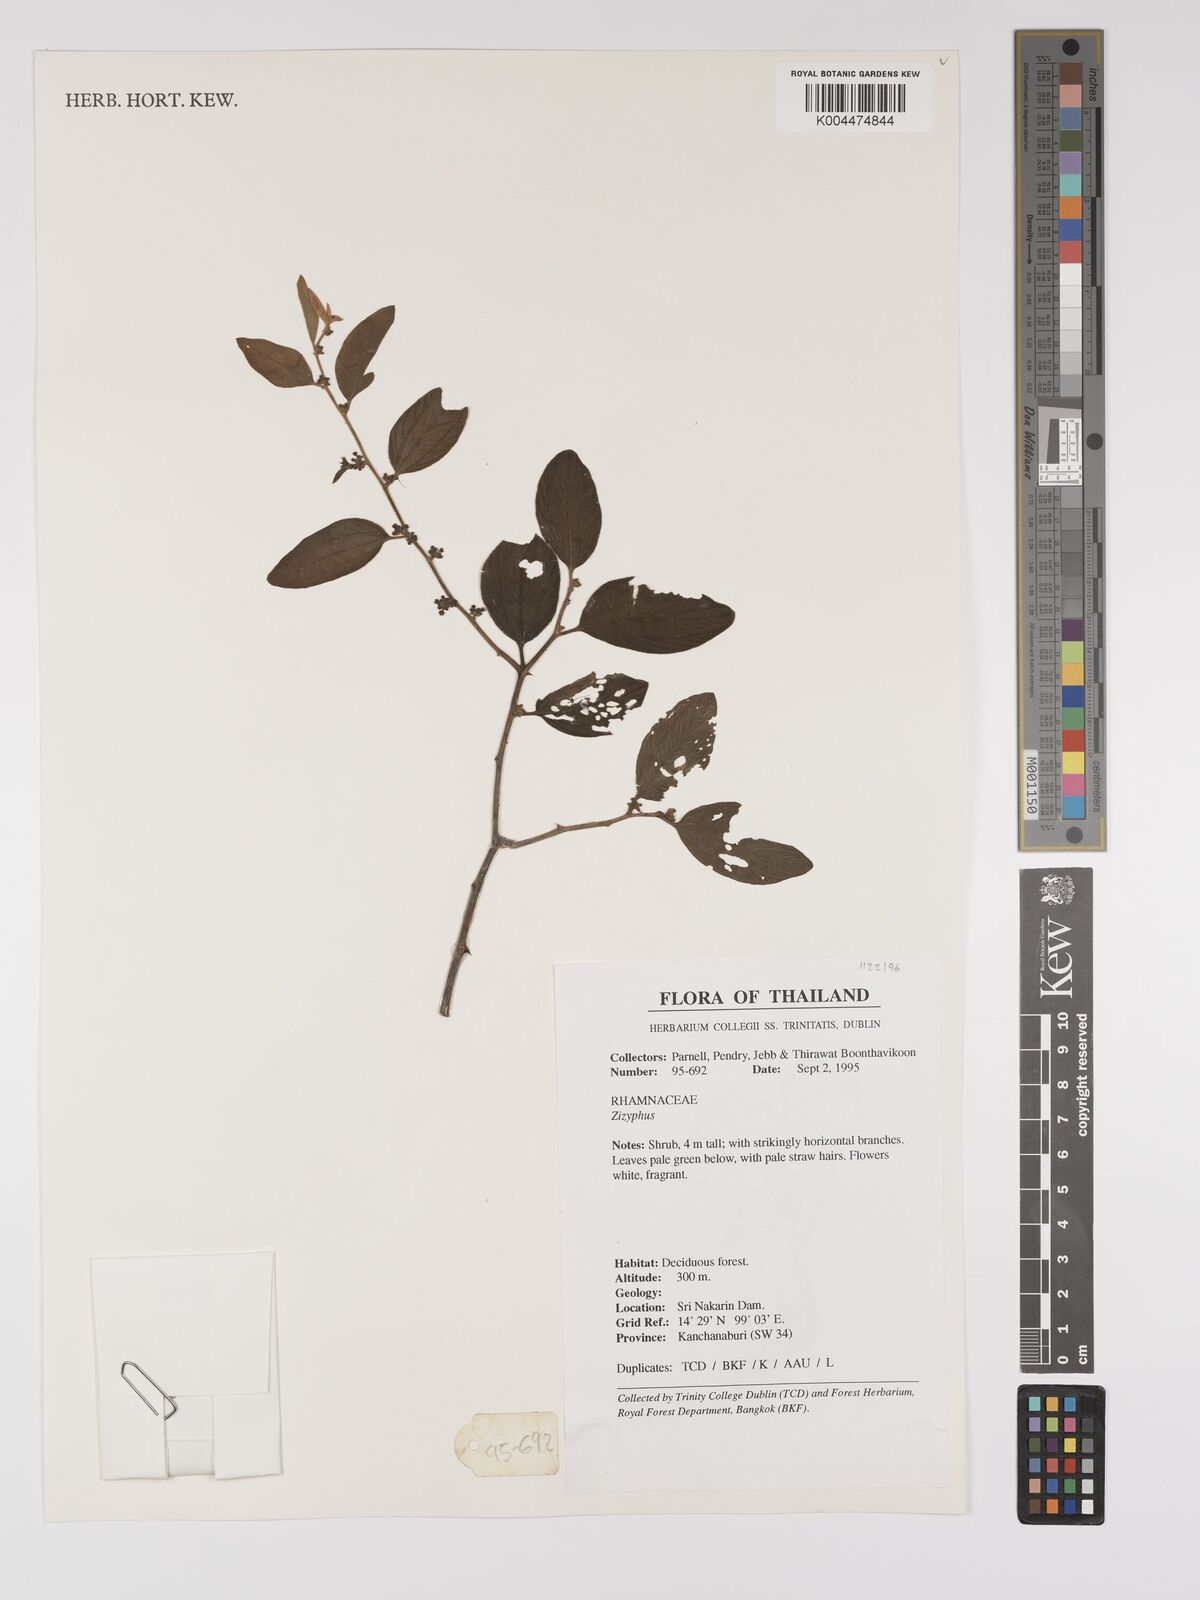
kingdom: Plantae
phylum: Tracheophyta
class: Magnoliopsida
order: Rosales
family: Rhamnaceae
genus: Ziziphus
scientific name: Ziziphus oenopolia
